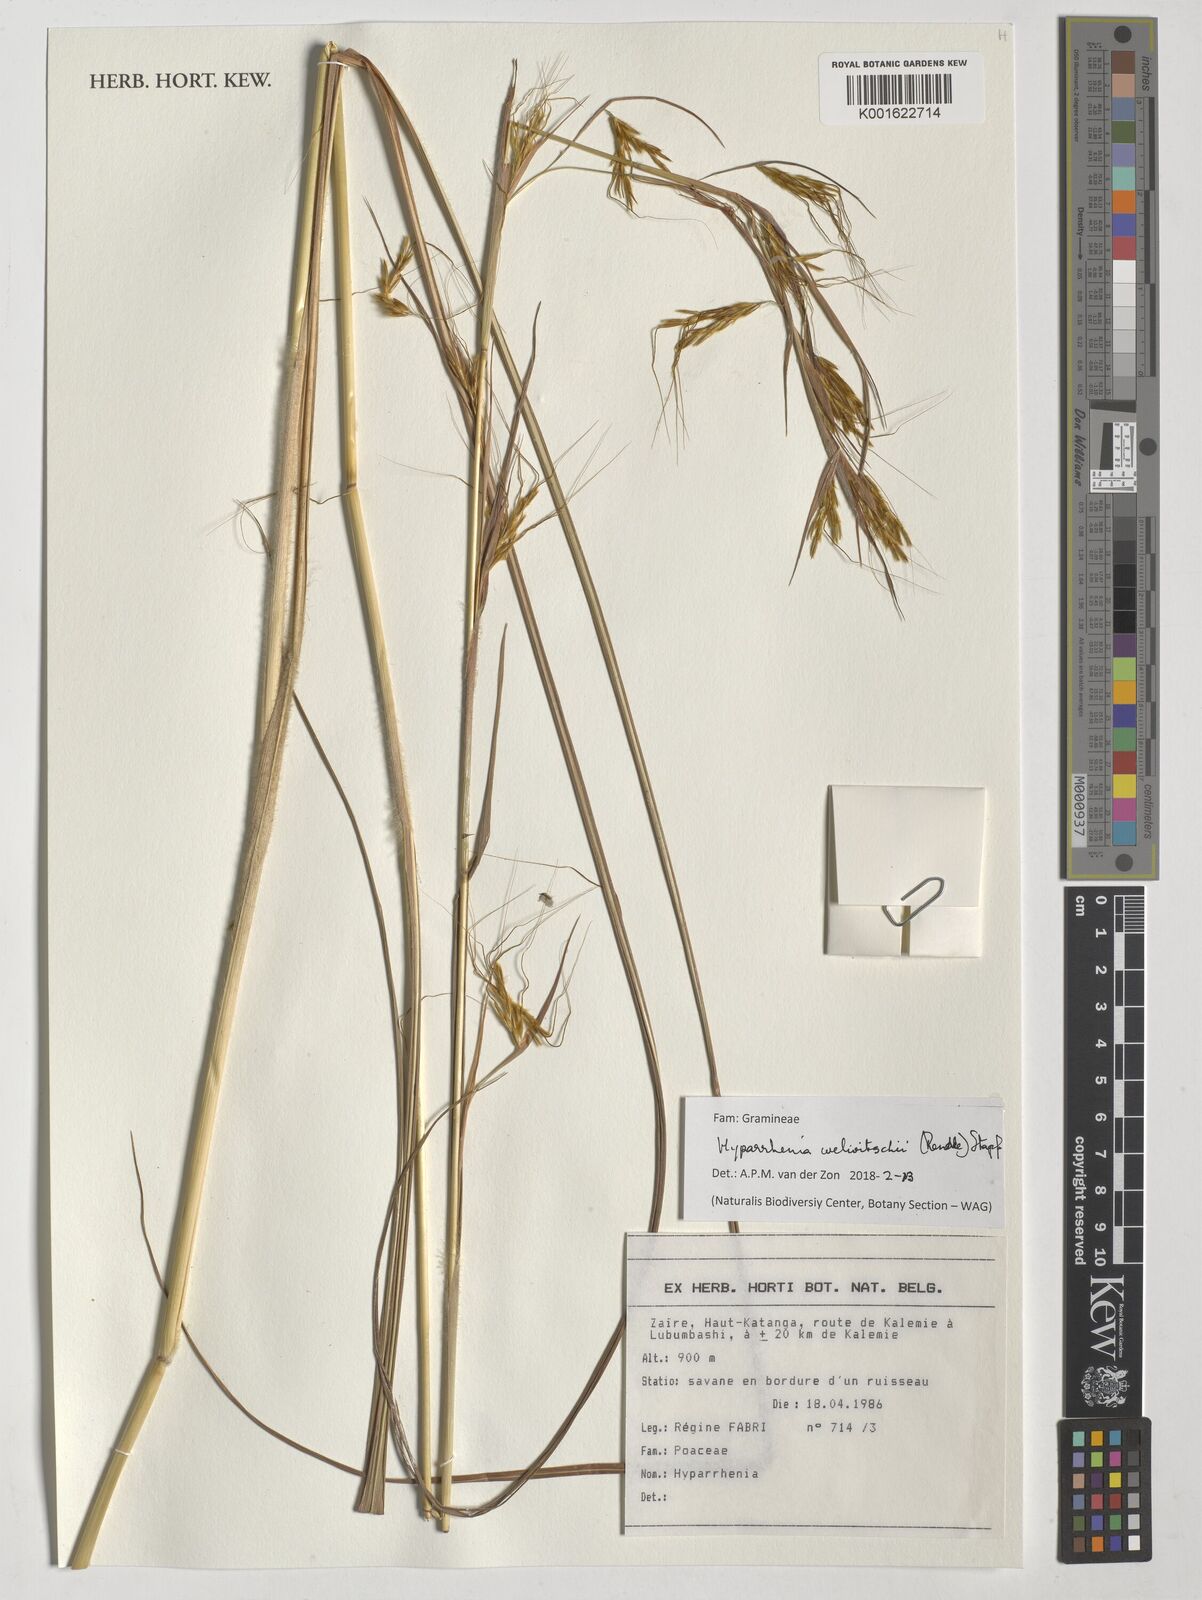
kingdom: Plantae
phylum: Tracheophyta
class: Liliopsida
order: Poales
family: Poaceae
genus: Hyparrhenia
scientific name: Hyparrhenia welwitschii
